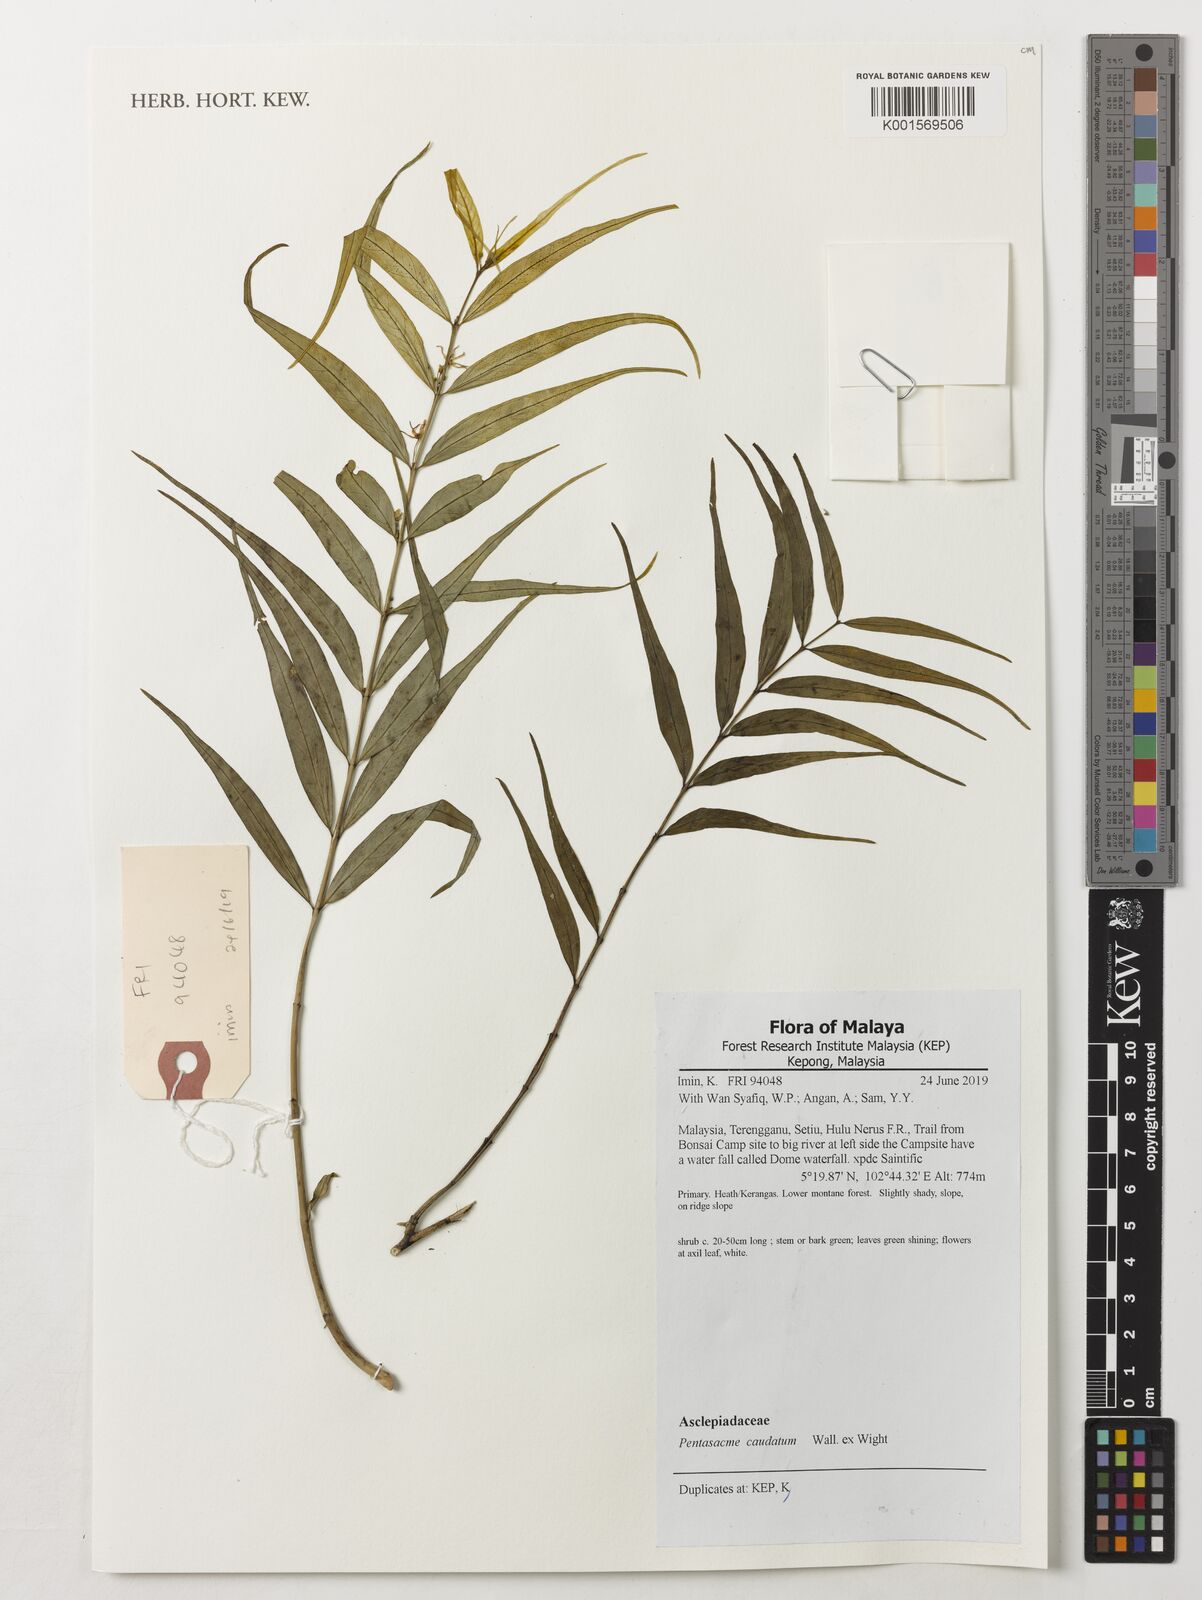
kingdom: Plantae
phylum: Tracheophyta
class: Magnoliopsida
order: Gentianales
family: Apocynaceae
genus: Pentasachme
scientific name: Pentasachme caudatum
